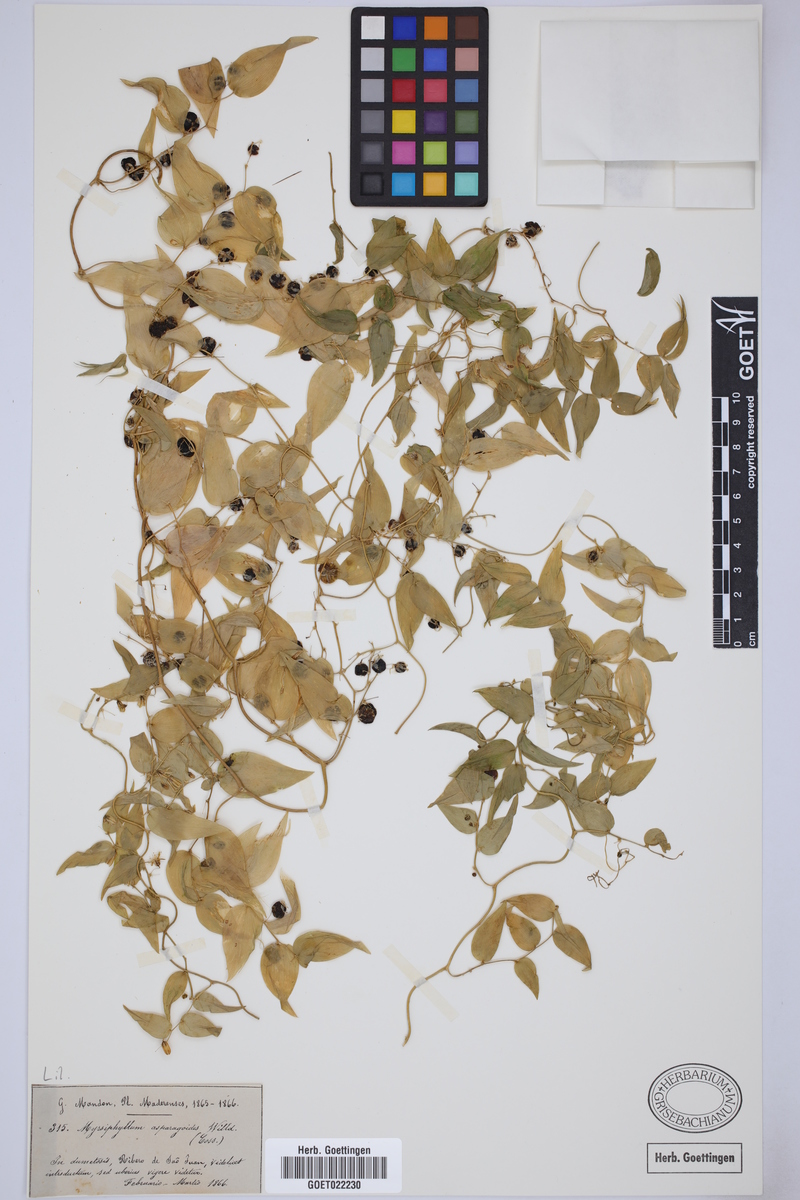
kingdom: Plantae
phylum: Tracheophyta
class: Liliopsida
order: Asparagales
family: Asparagaceae
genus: Asparagus
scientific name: Asparagus asparagoides
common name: African asparagus fern
